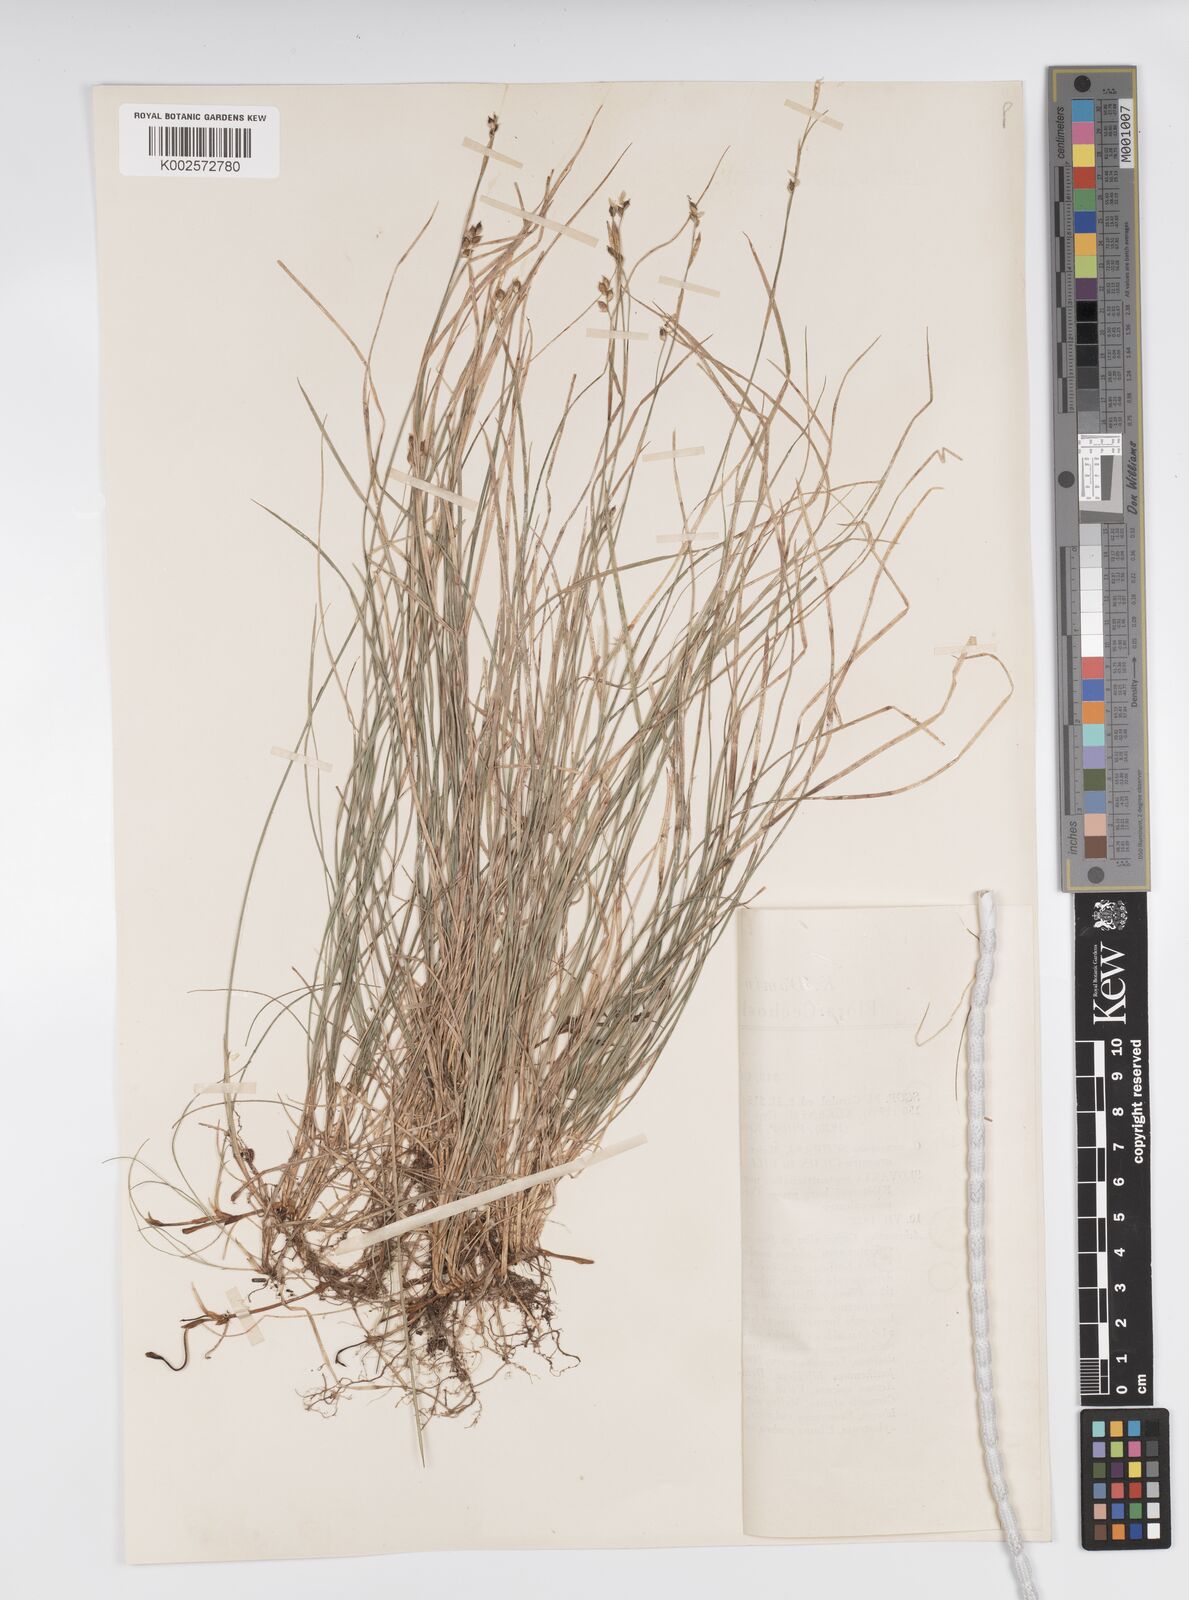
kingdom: Plantae
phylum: Tracheophyta
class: Liliopsida
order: Poales
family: Cyperaceae
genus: Carex
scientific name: Carex alba
